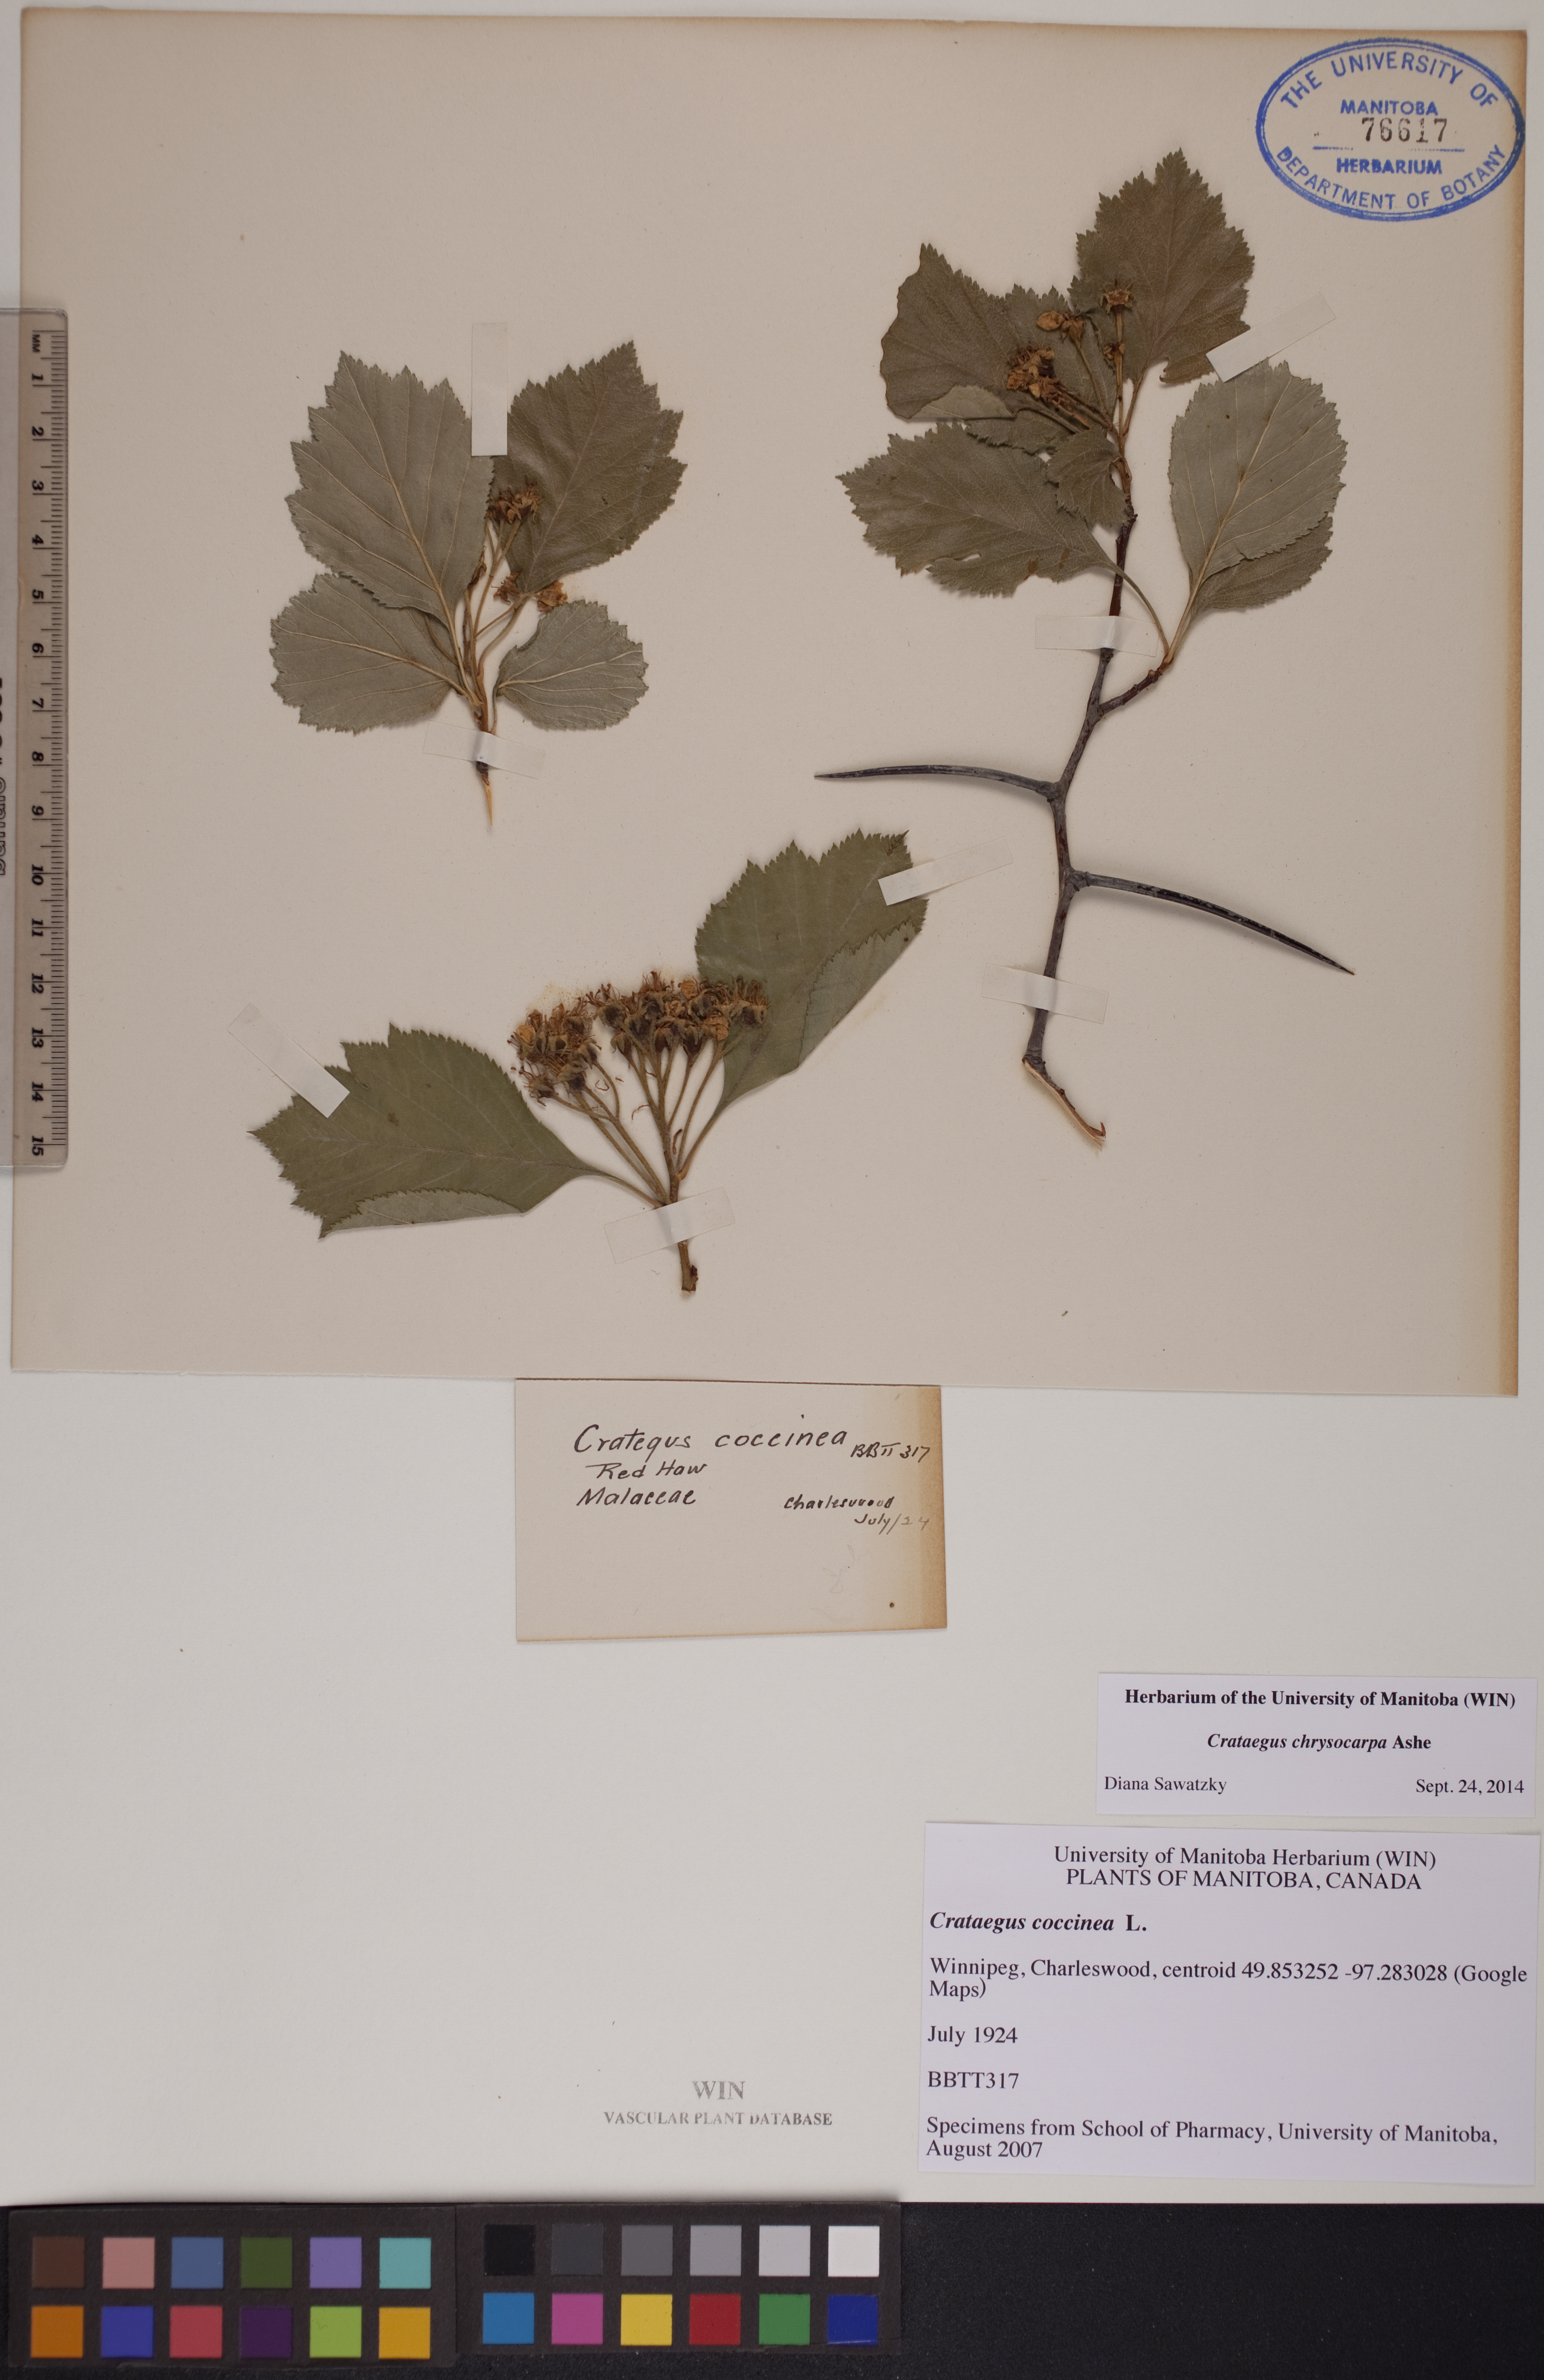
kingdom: Plantae
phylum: Tracheophyta
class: Magnoliopsida
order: Rosales
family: Rosaceae
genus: Crataegus
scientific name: Crataegus chrysocarpa
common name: Fire-berry hawthorn
